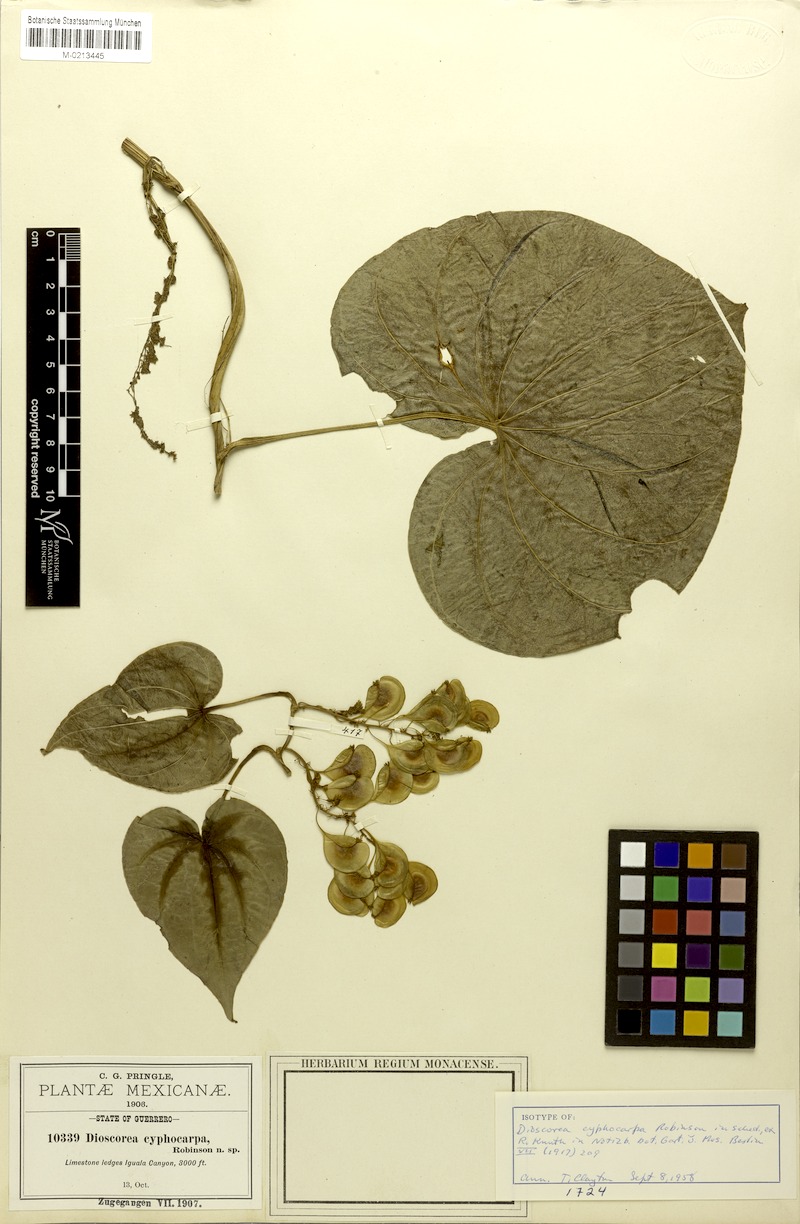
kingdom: Plantae
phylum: Tracheophyta
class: Liliopsida
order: Dioscoreales
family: Dioscoreaceae
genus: Dioscorea
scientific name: Dioscorea cyphocarpa
